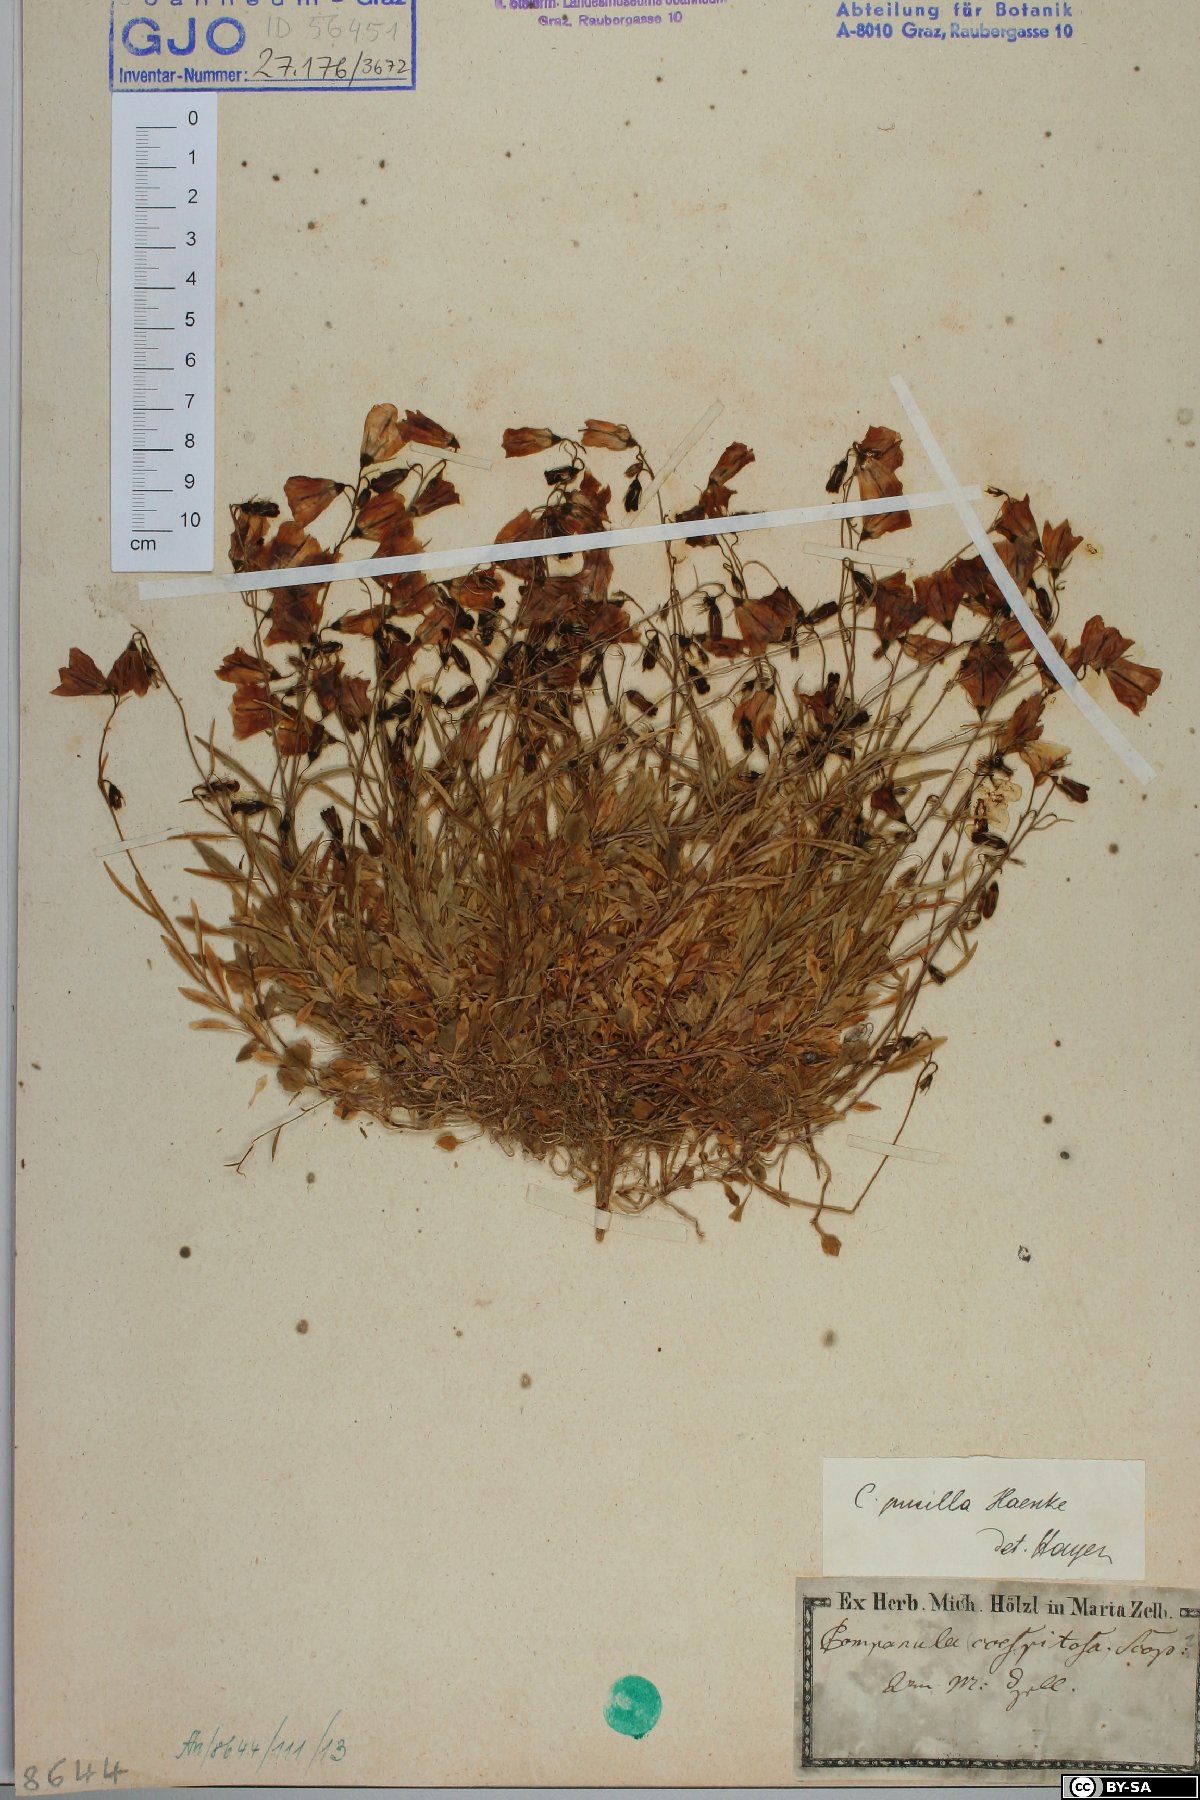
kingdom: Plantae
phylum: Tracheophyta
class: Magnoliopsida
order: Asterales
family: Campanulaceae
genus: Campanula
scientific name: Campanula cochleariifolia
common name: Fairies'-thimbles
